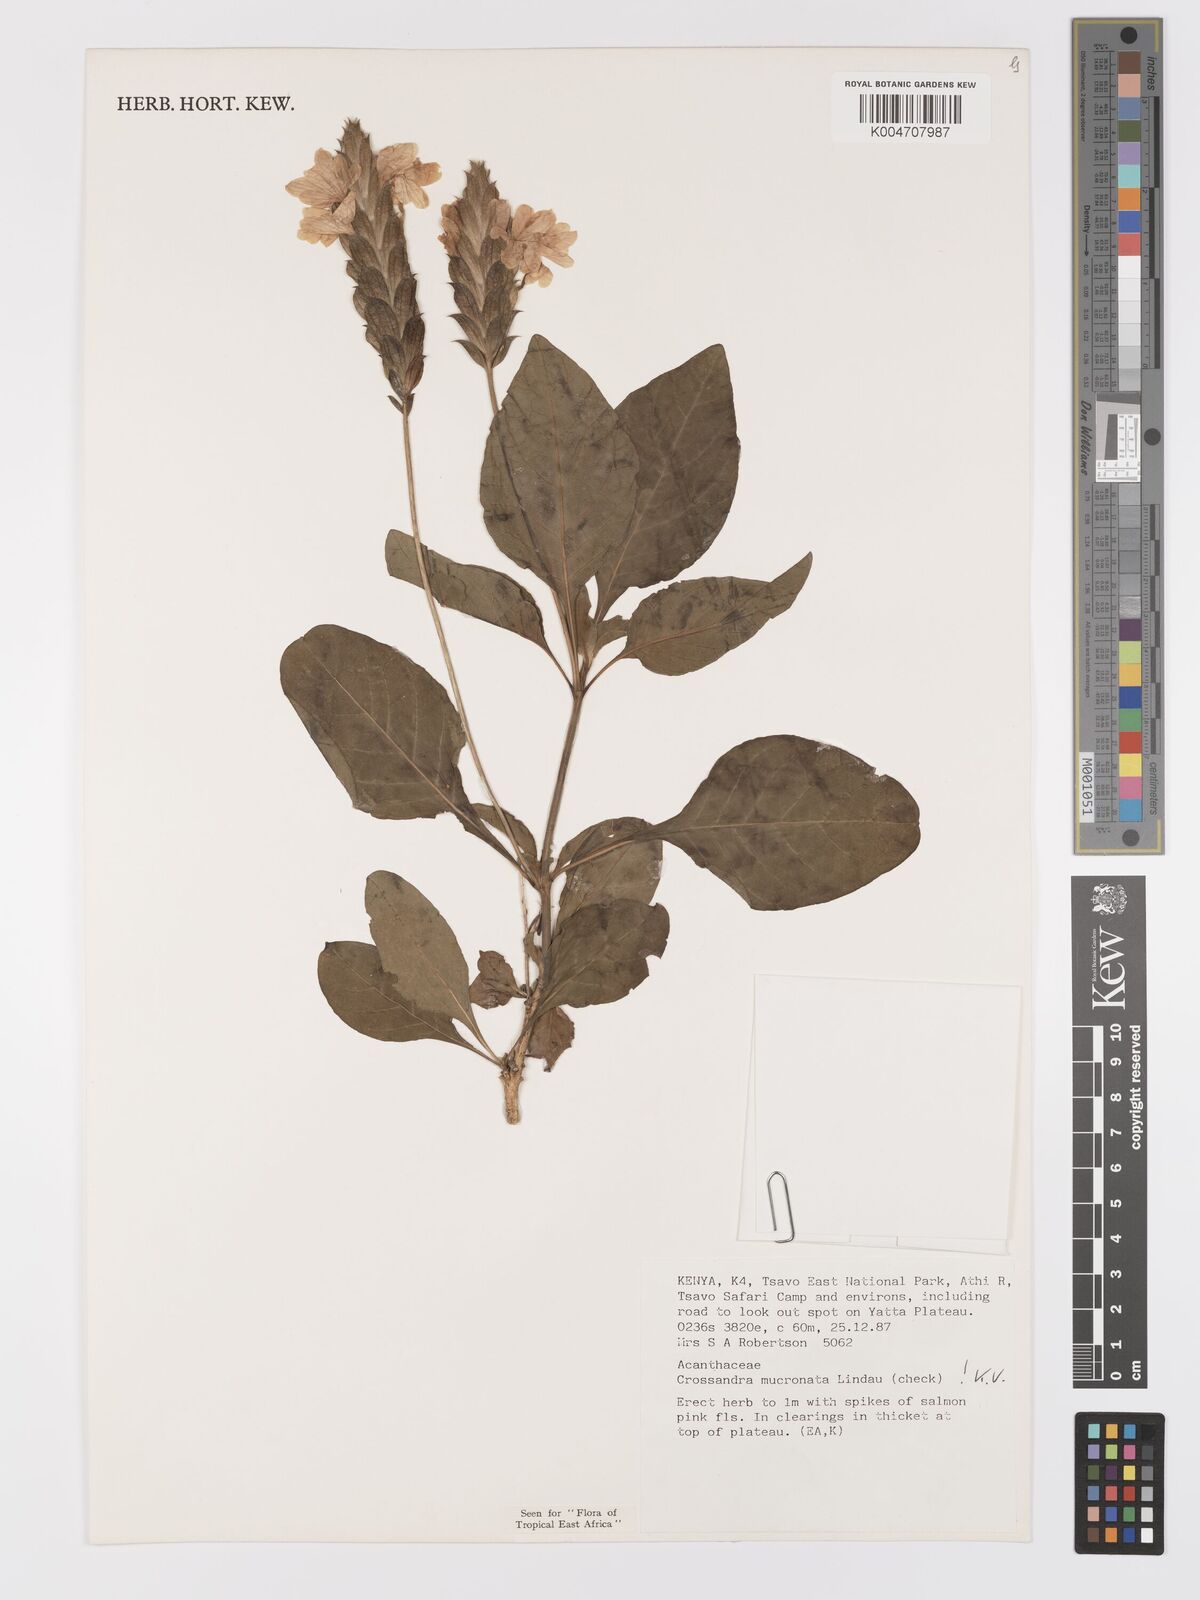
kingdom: Plantae
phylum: Tracheophyta
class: Magnoliopsida
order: Lamiales
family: Acanthaceae
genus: Crossandra
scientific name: Crossandra mucronata
